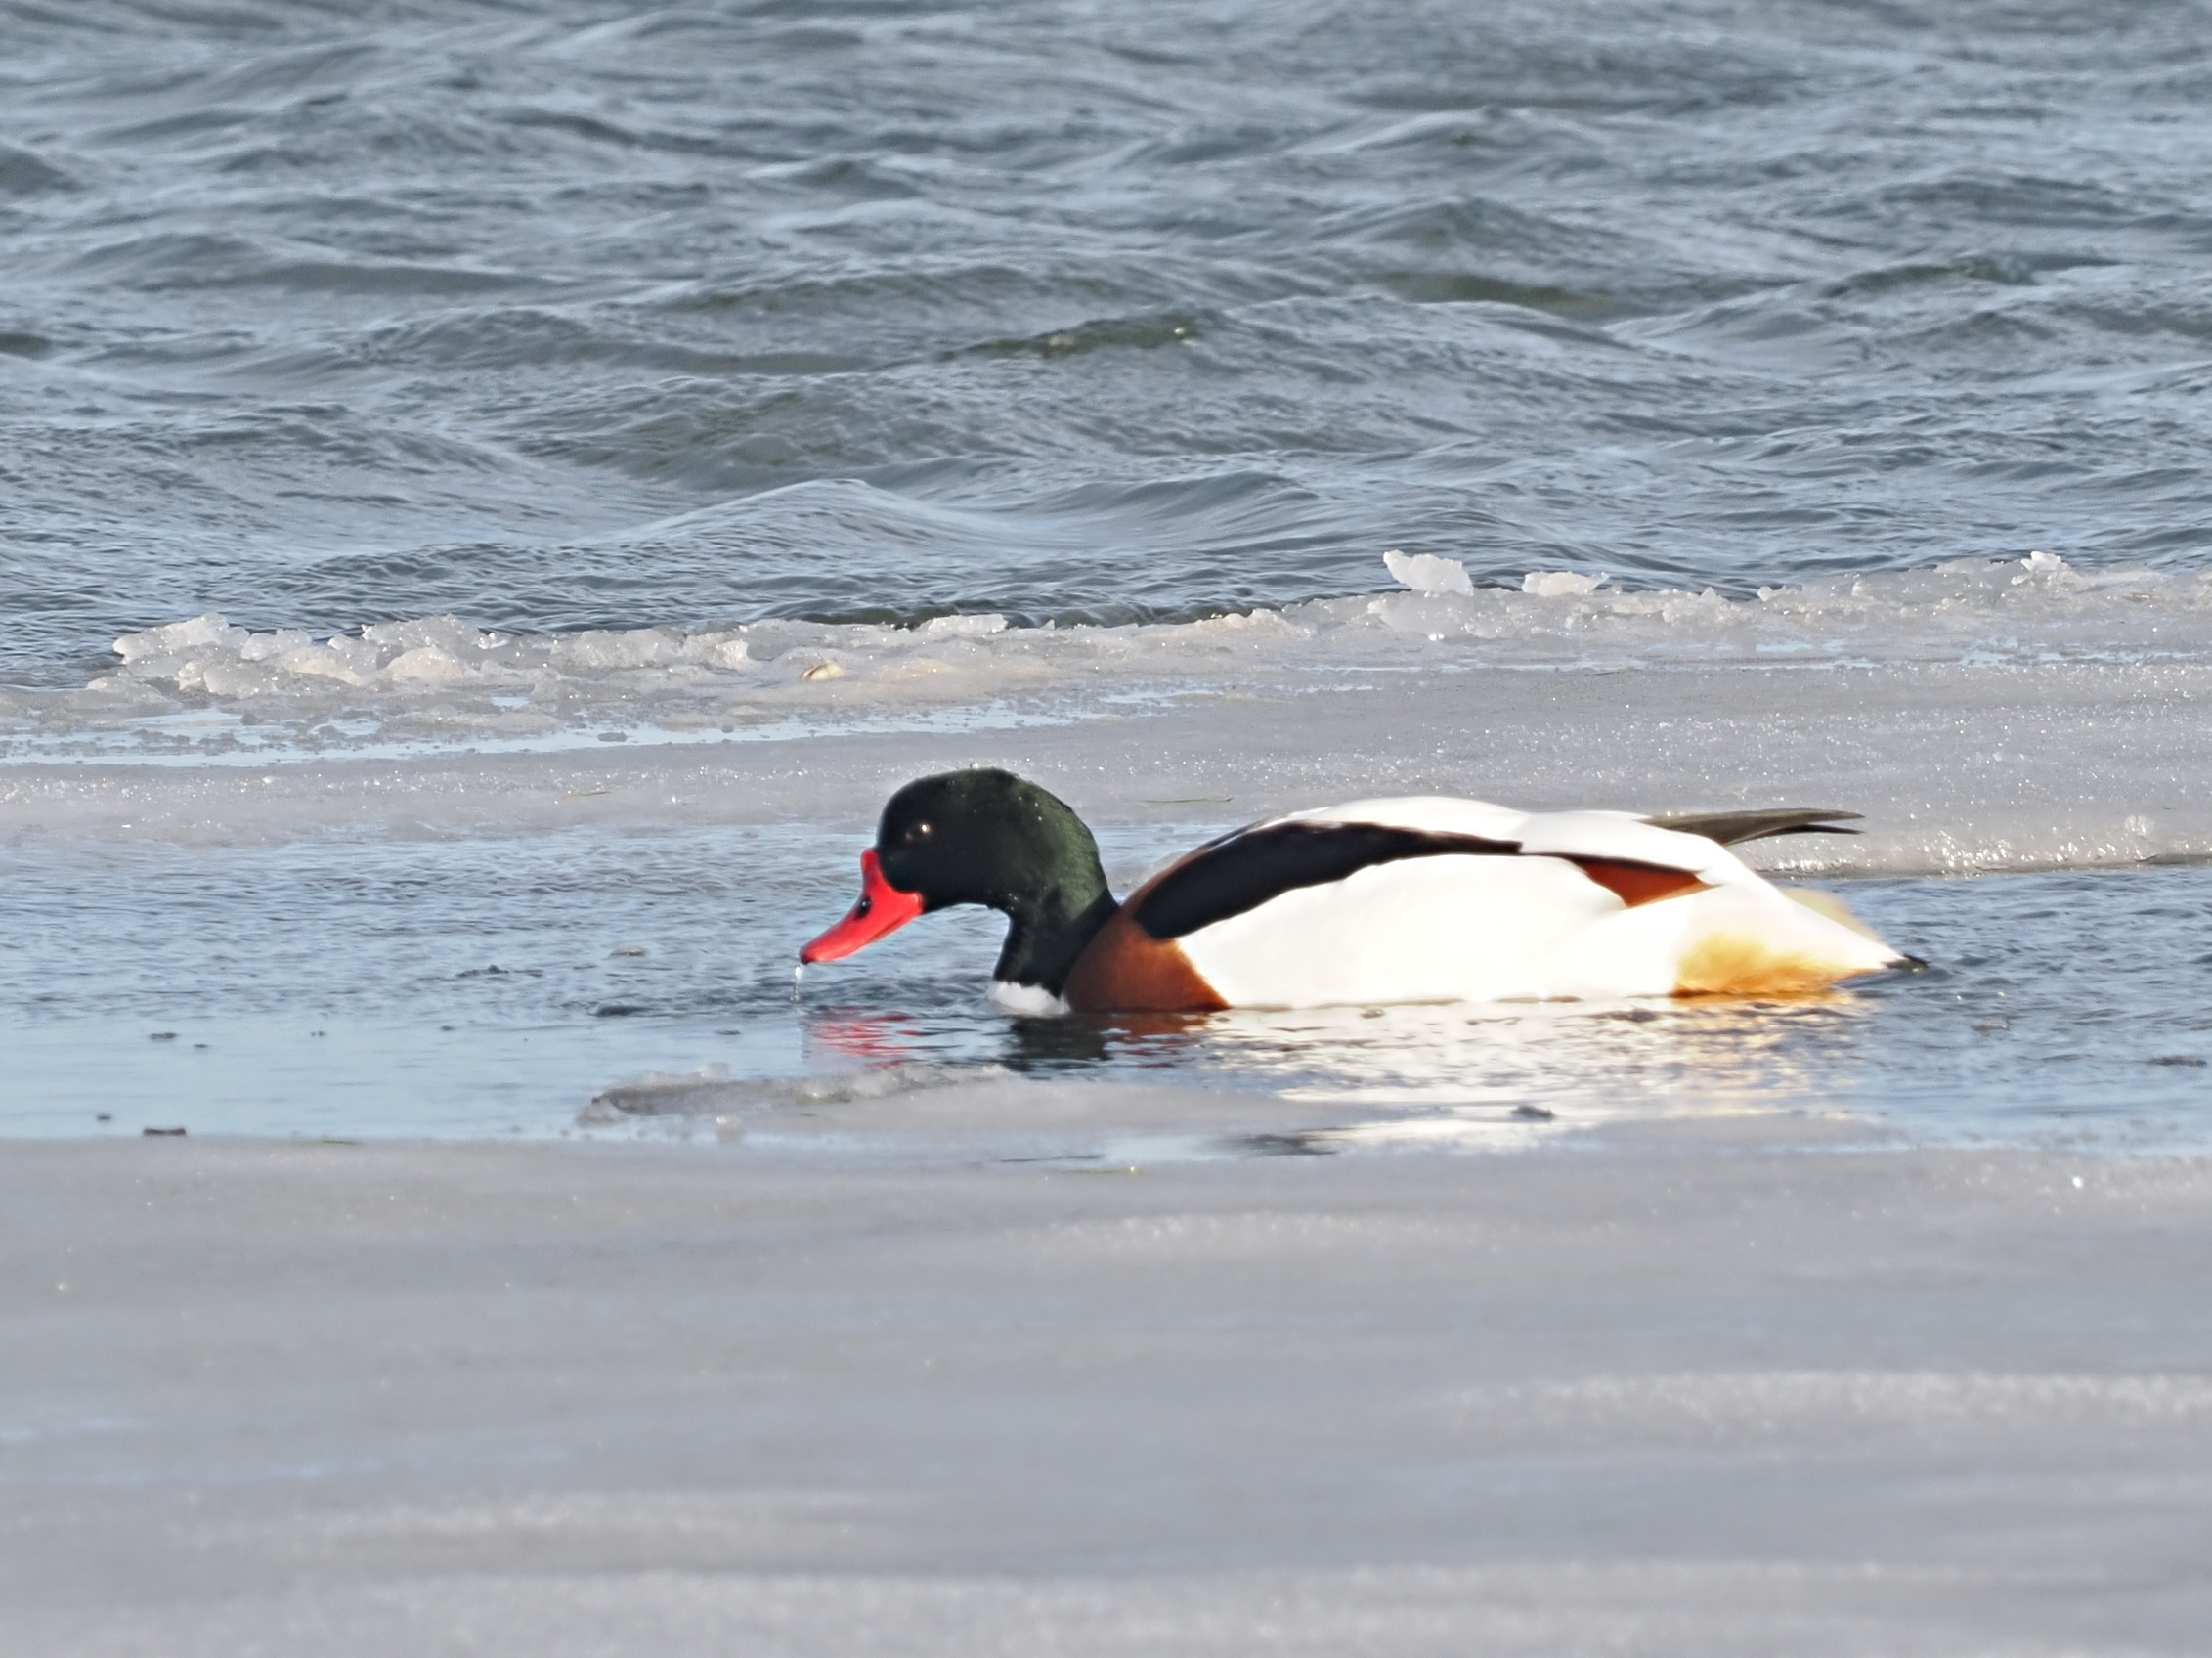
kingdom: Animalia
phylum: Chordata
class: Aves
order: Anseriformes
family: Anatidae
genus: Tadorna
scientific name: Tadorna tadorna
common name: Gravand
